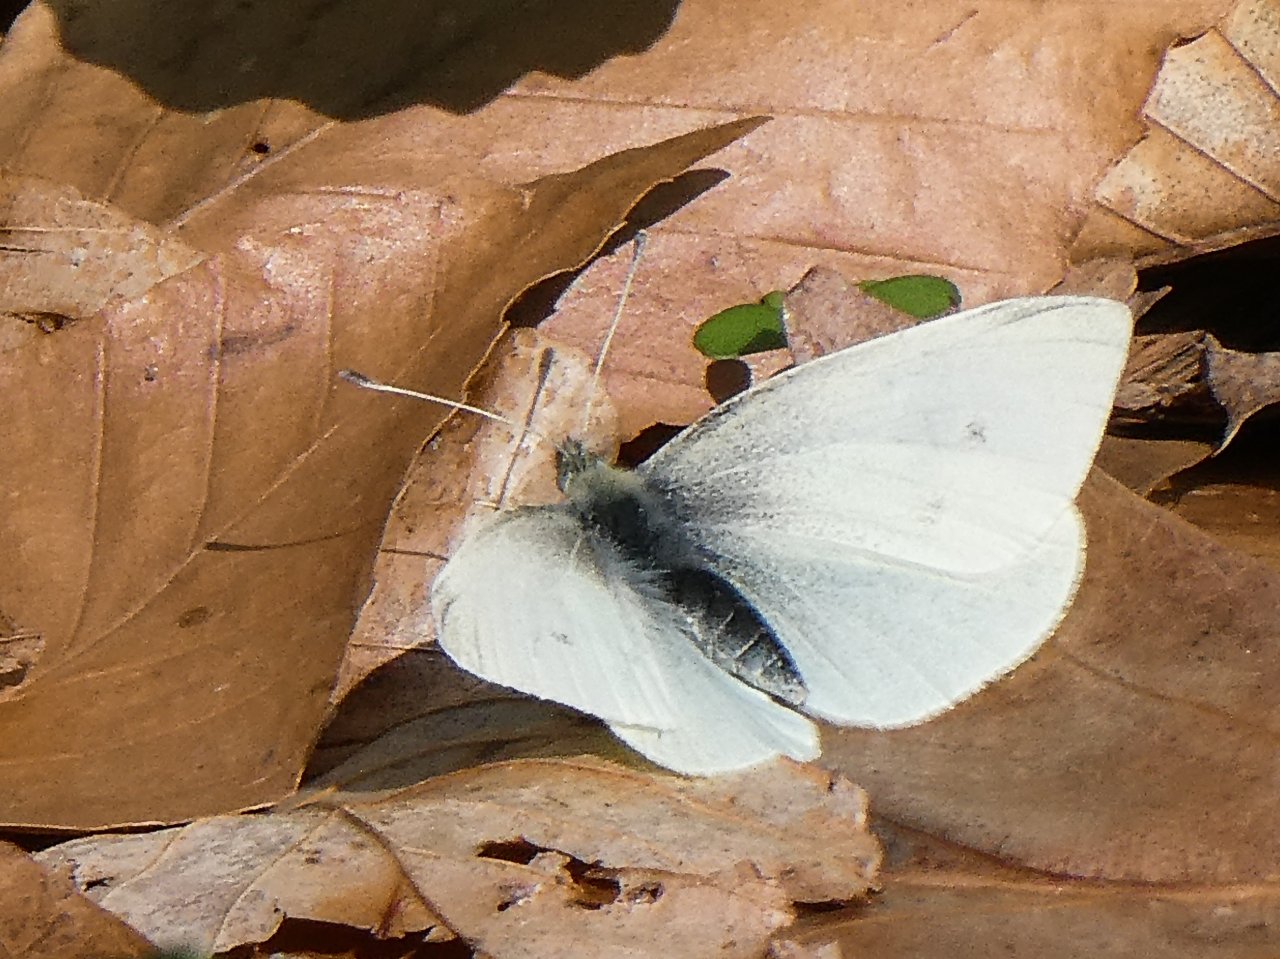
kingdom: Animalia
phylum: Arthropoda
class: Insecta
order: Lepidoptera
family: Pieridae
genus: Pieris
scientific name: Pieris rapae
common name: Cabbage White
